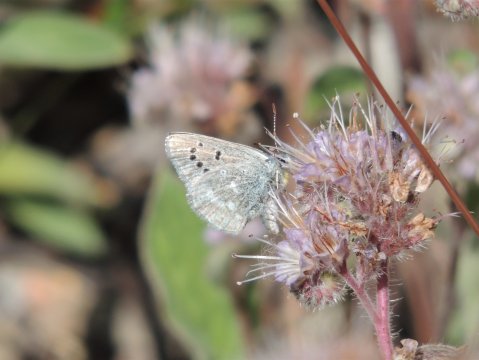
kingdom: Animalia
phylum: Arthropoda
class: Insecta
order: Lepidoptera
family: Lycaenidae
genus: Icaricia
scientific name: Icaricia icarioides
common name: Boisduval's Blue
